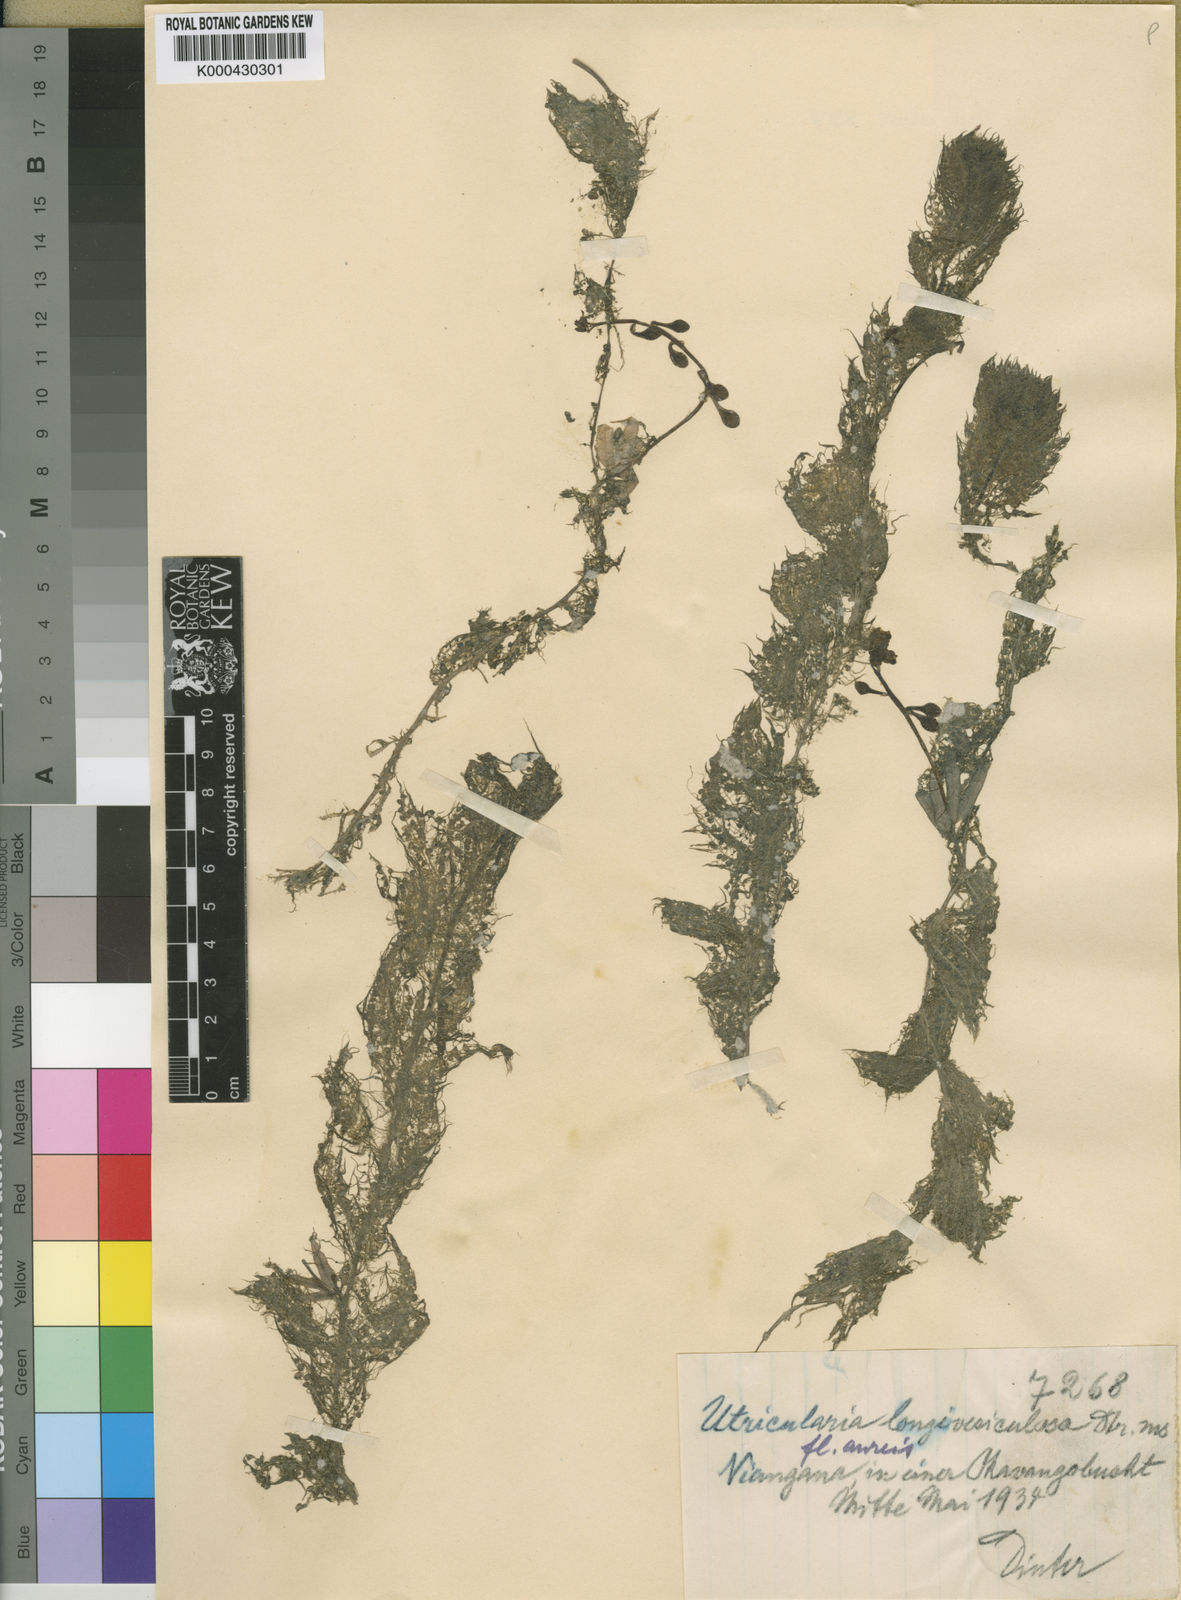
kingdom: Plantae
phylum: Tracheophyta
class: Magnoliopsida
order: Lamiales
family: Lentibulariaceae
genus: Utricularia
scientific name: Utricularia inflexa
